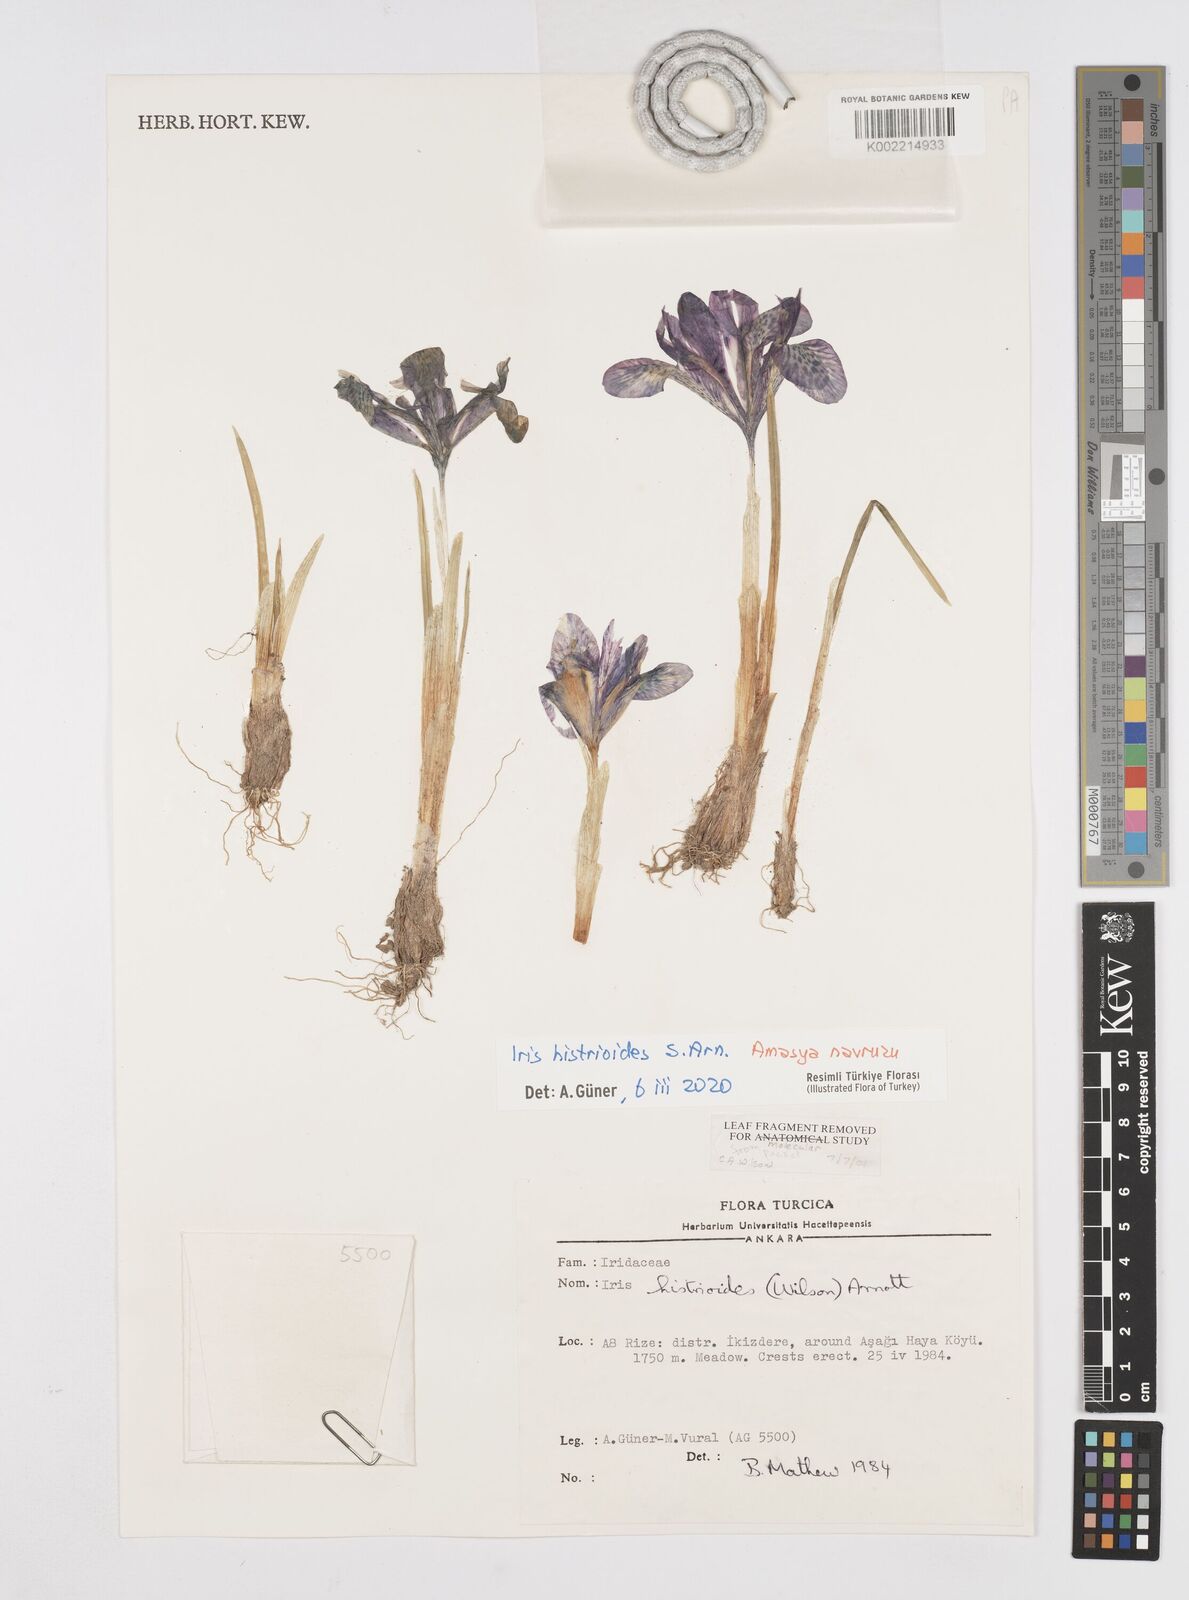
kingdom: Plantae
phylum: Tracheophyta
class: Liliopsida
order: Asparagales
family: Iridaceae
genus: Iris
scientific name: Iris histrioides
